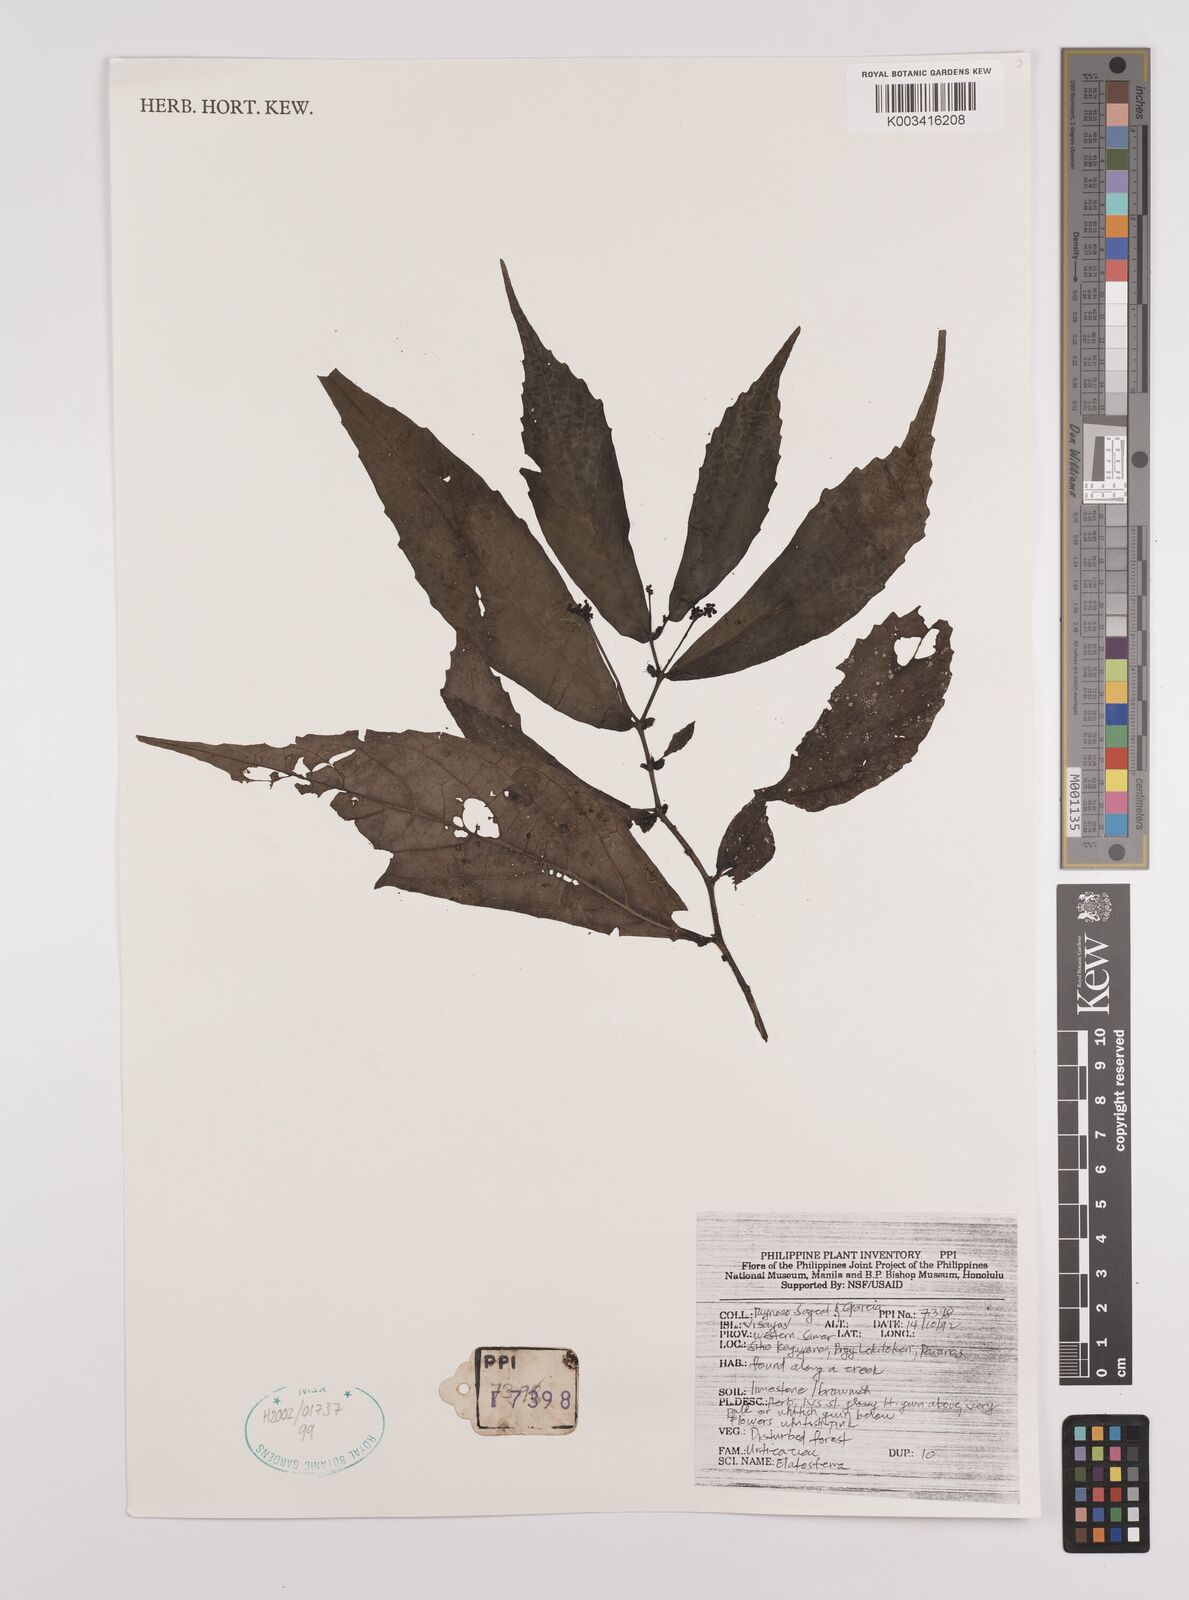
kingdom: Plantae
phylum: Tracheophyta
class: Magnoliopsida
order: Rosales
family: Urticaceae
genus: Elatostema
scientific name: Elatostema
